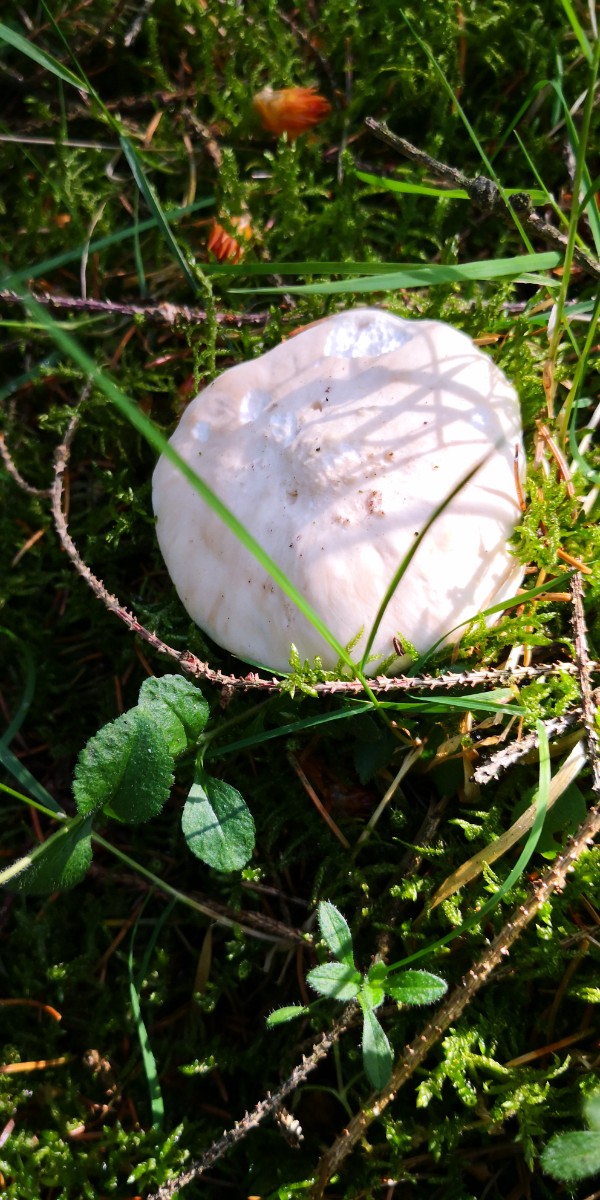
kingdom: Fungi
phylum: Basidiomycota
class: Agaricomycetes
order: Agaricales
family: Lyophyllaceae
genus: Calocybe
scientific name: Calocybe gambosa
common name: vårmusseron
